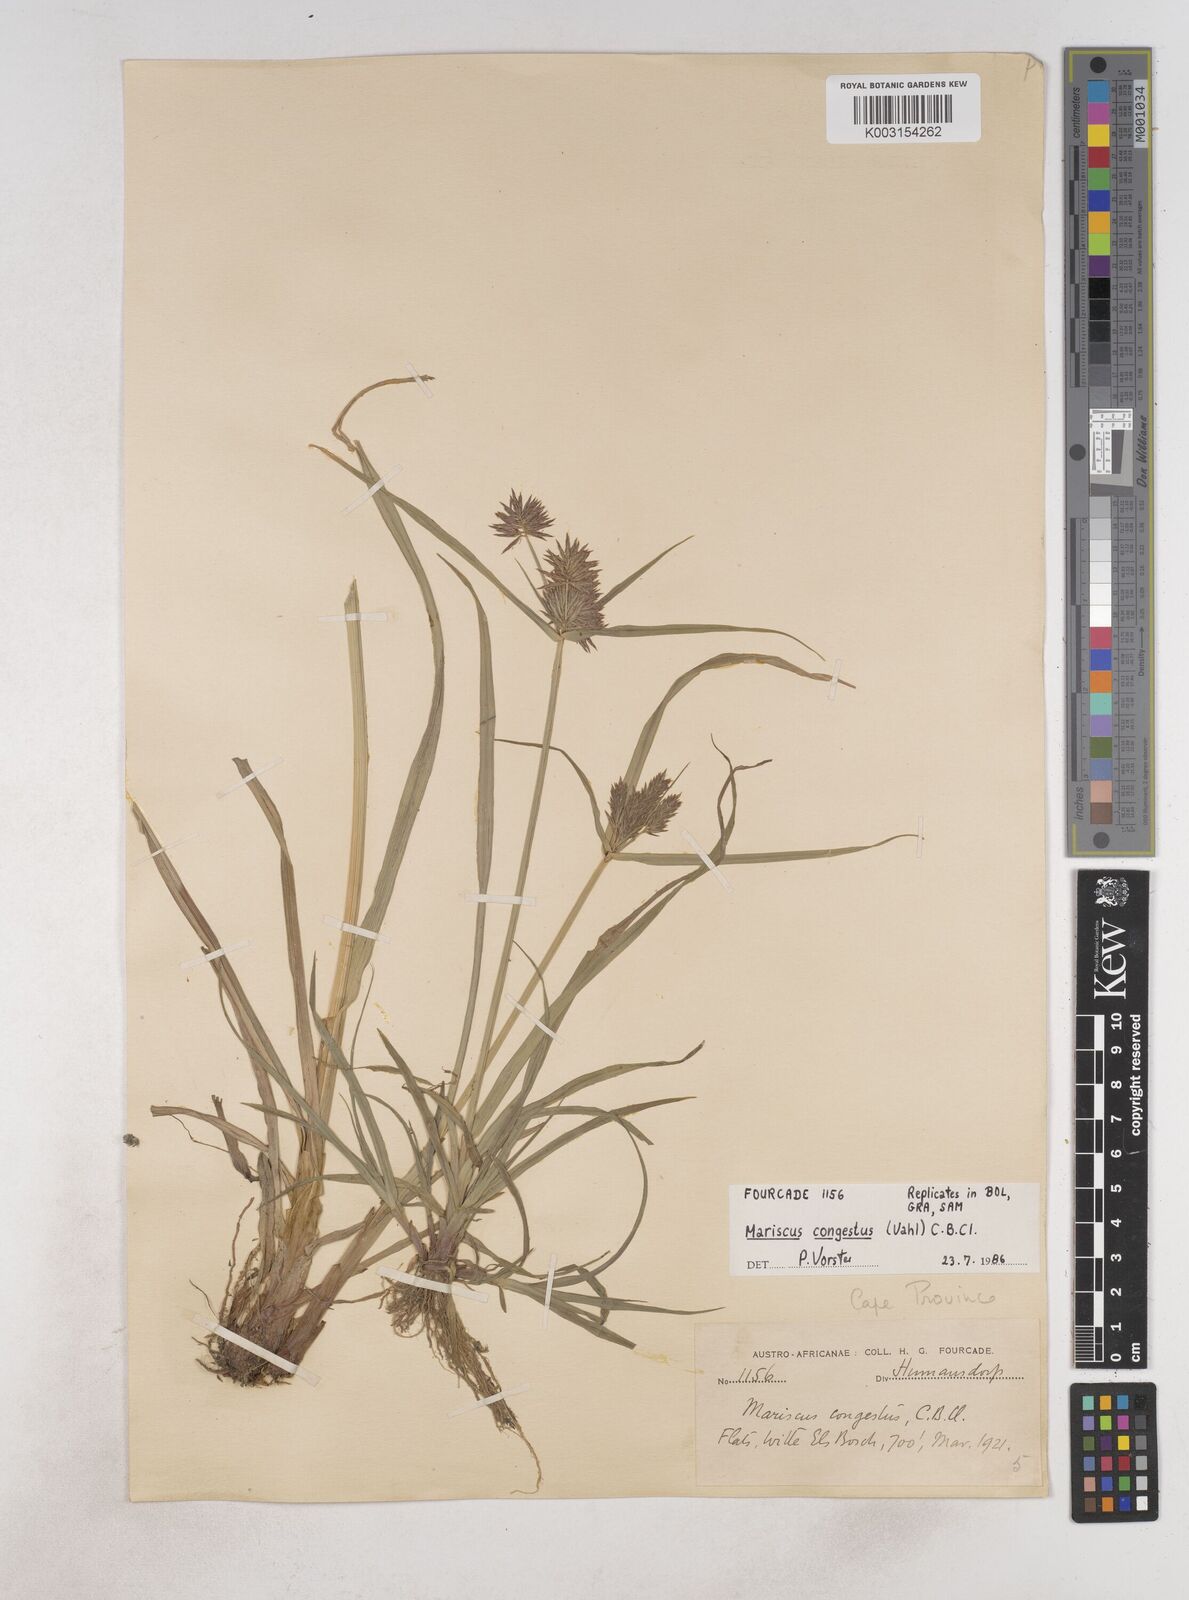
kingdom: Plantae
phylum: Tracheophyta
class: Liliopsida
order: Poales
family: Cyperaceae
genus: Cyperus
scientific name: Cyperus congestus
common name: Dense flat sedge
